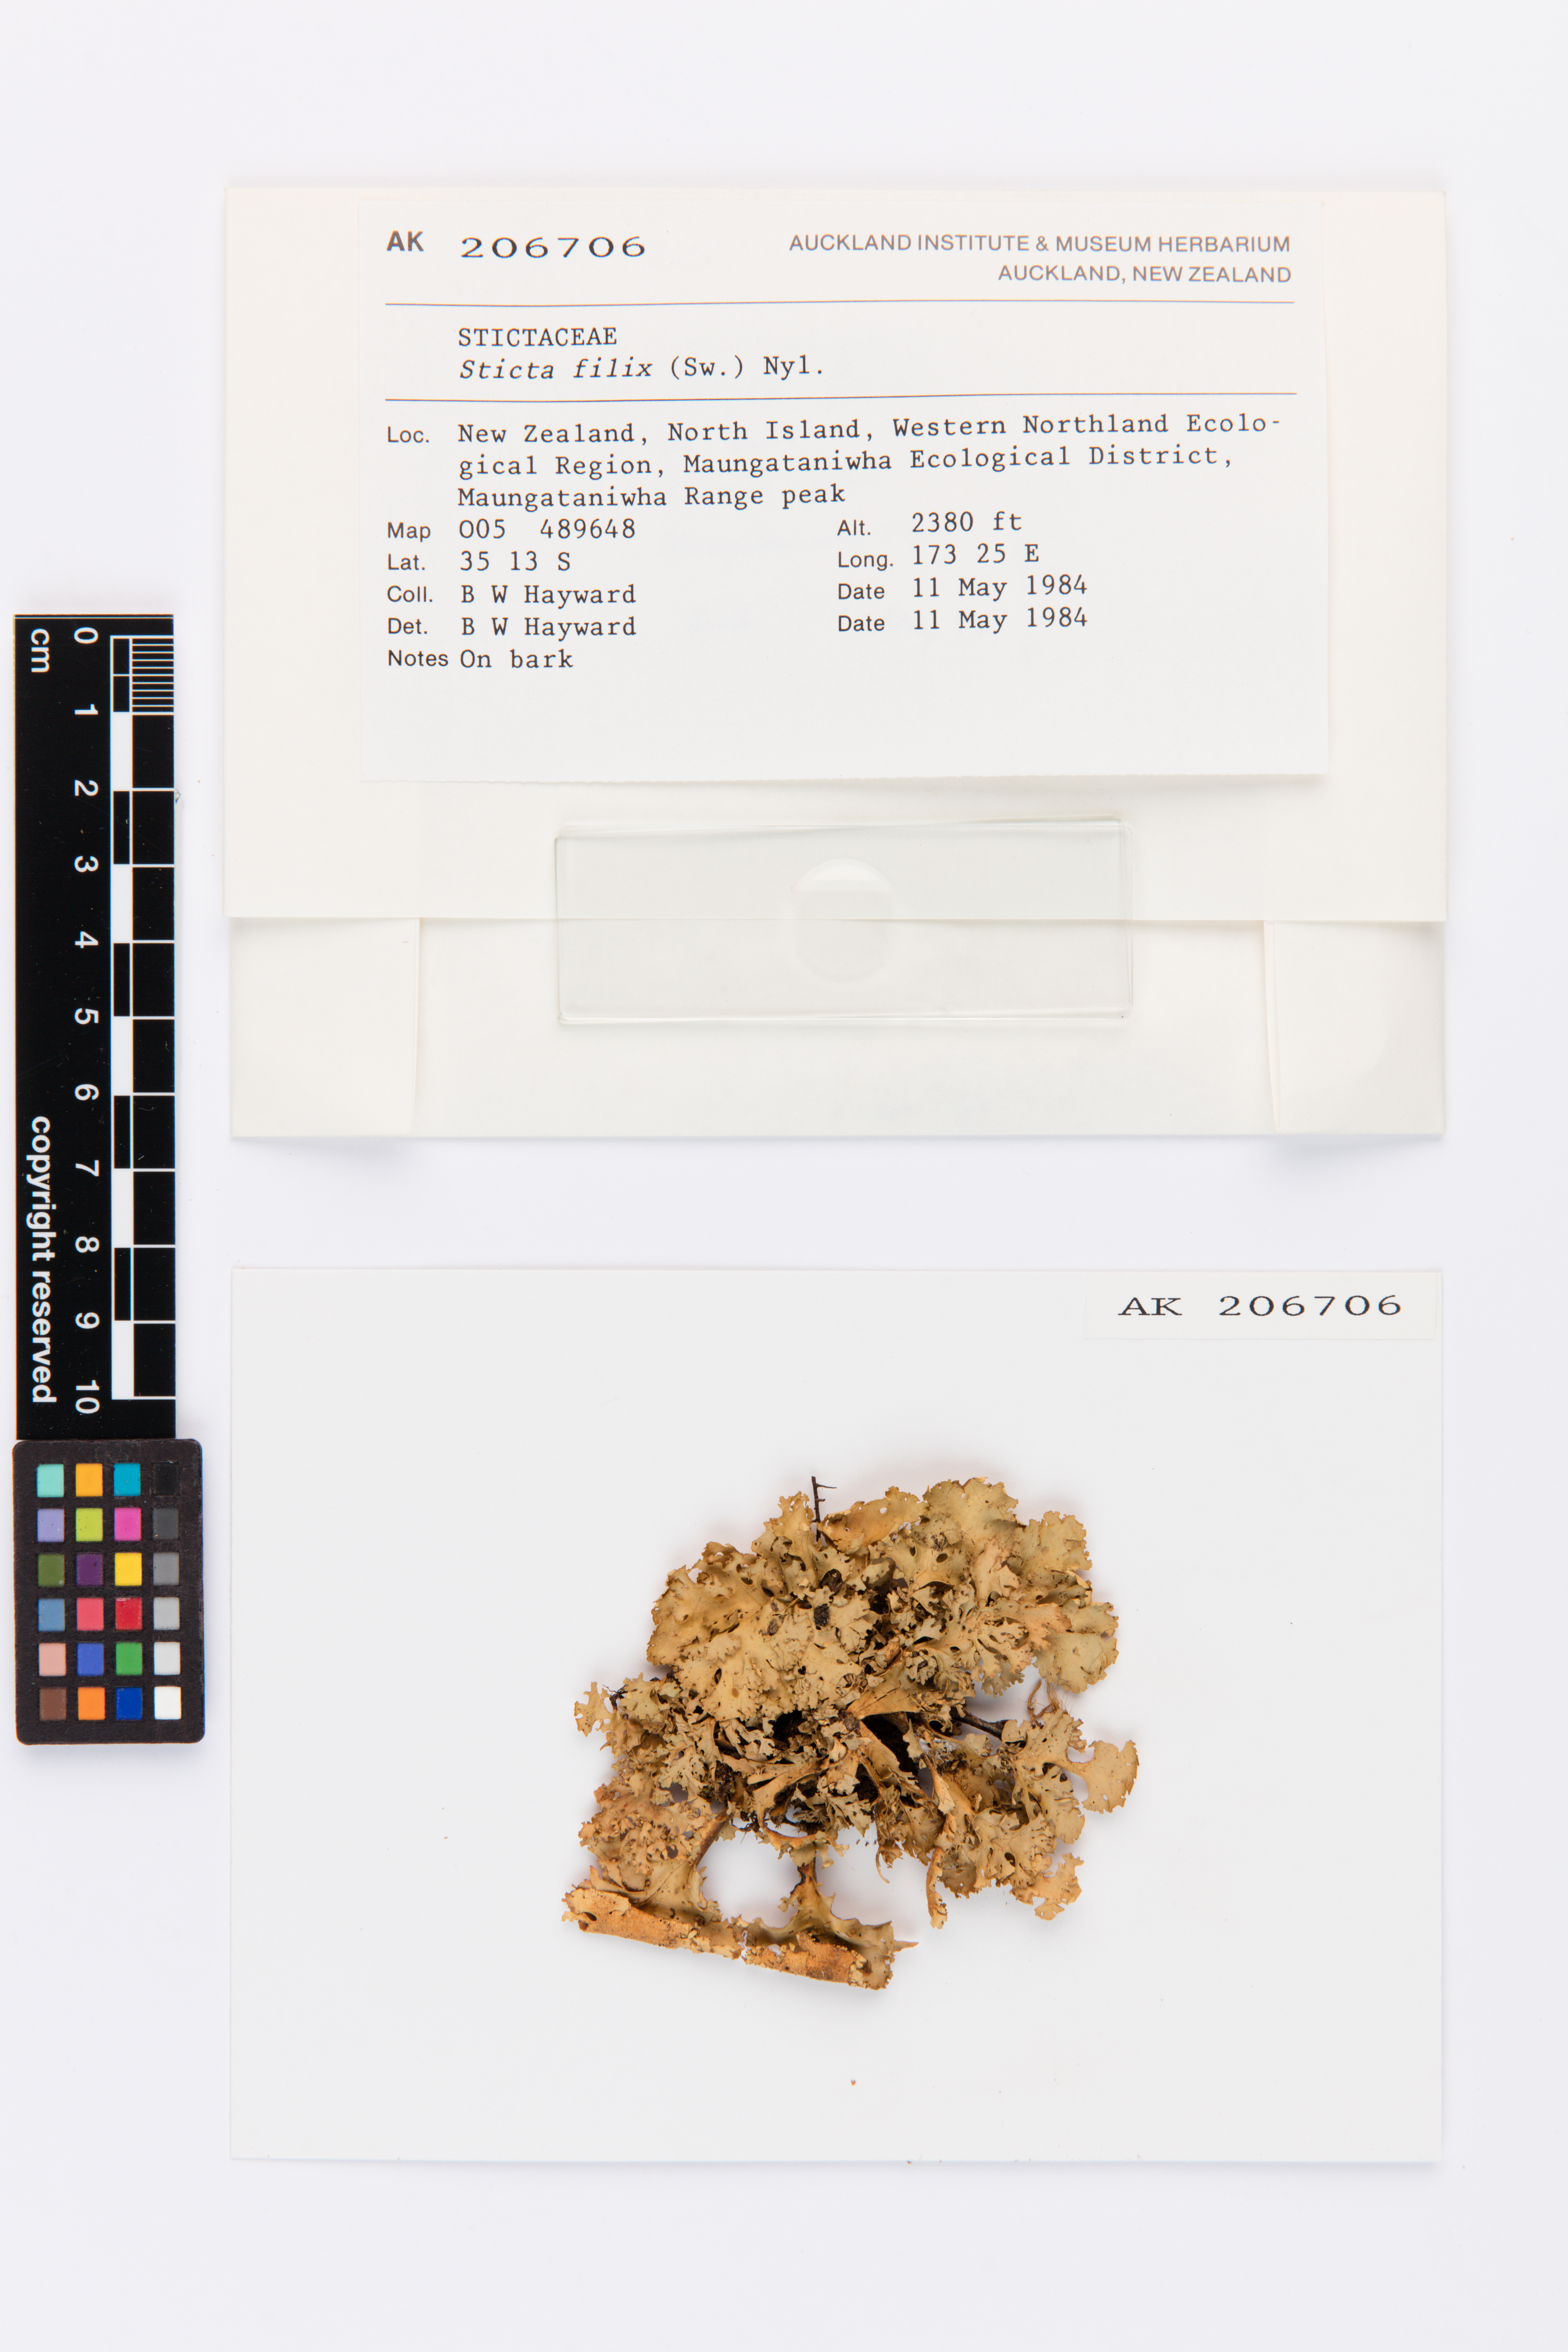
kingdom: Fungi
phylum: Ascomycota
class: Lecanoromycetes
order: Peltigerales
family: Lobariaceae
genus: Sticta
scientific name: Sticta filix
